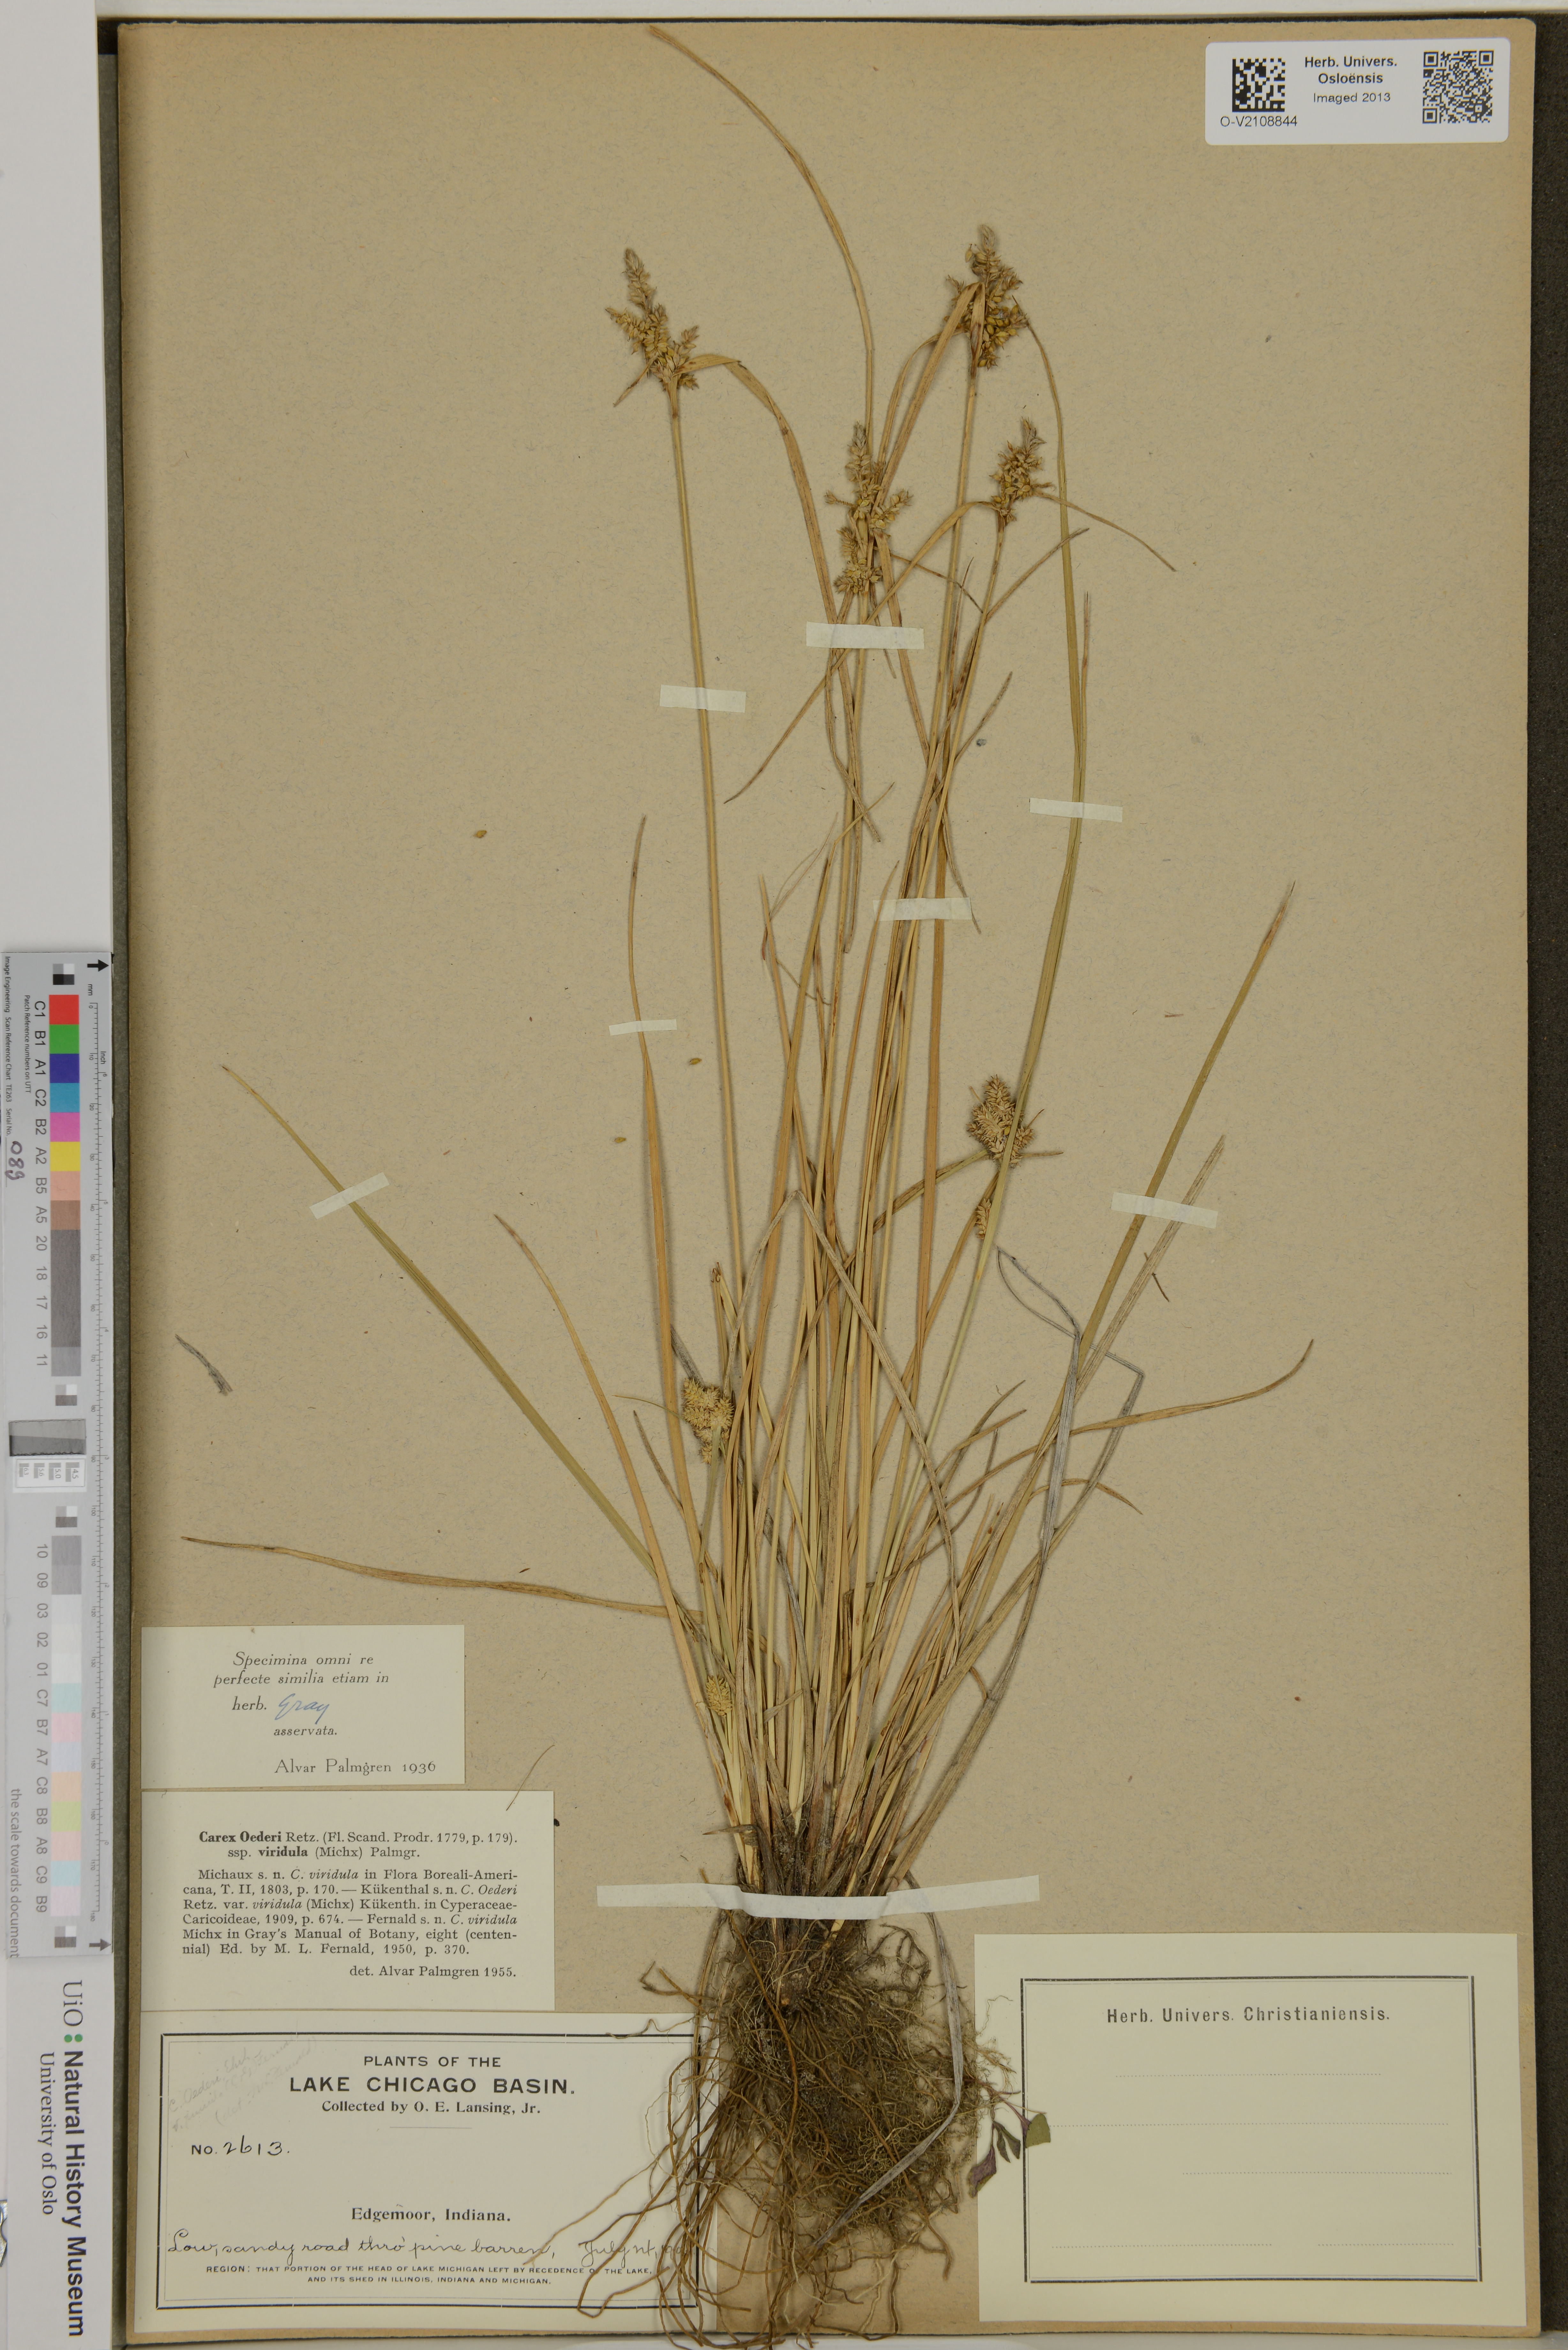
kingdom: Plantae
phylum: Tracheophyta
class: Liliopsida
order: Poales
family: Cyperaceae
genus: Carex
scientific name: Carex oederi
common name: Common & small-fruited yellow-sedge
